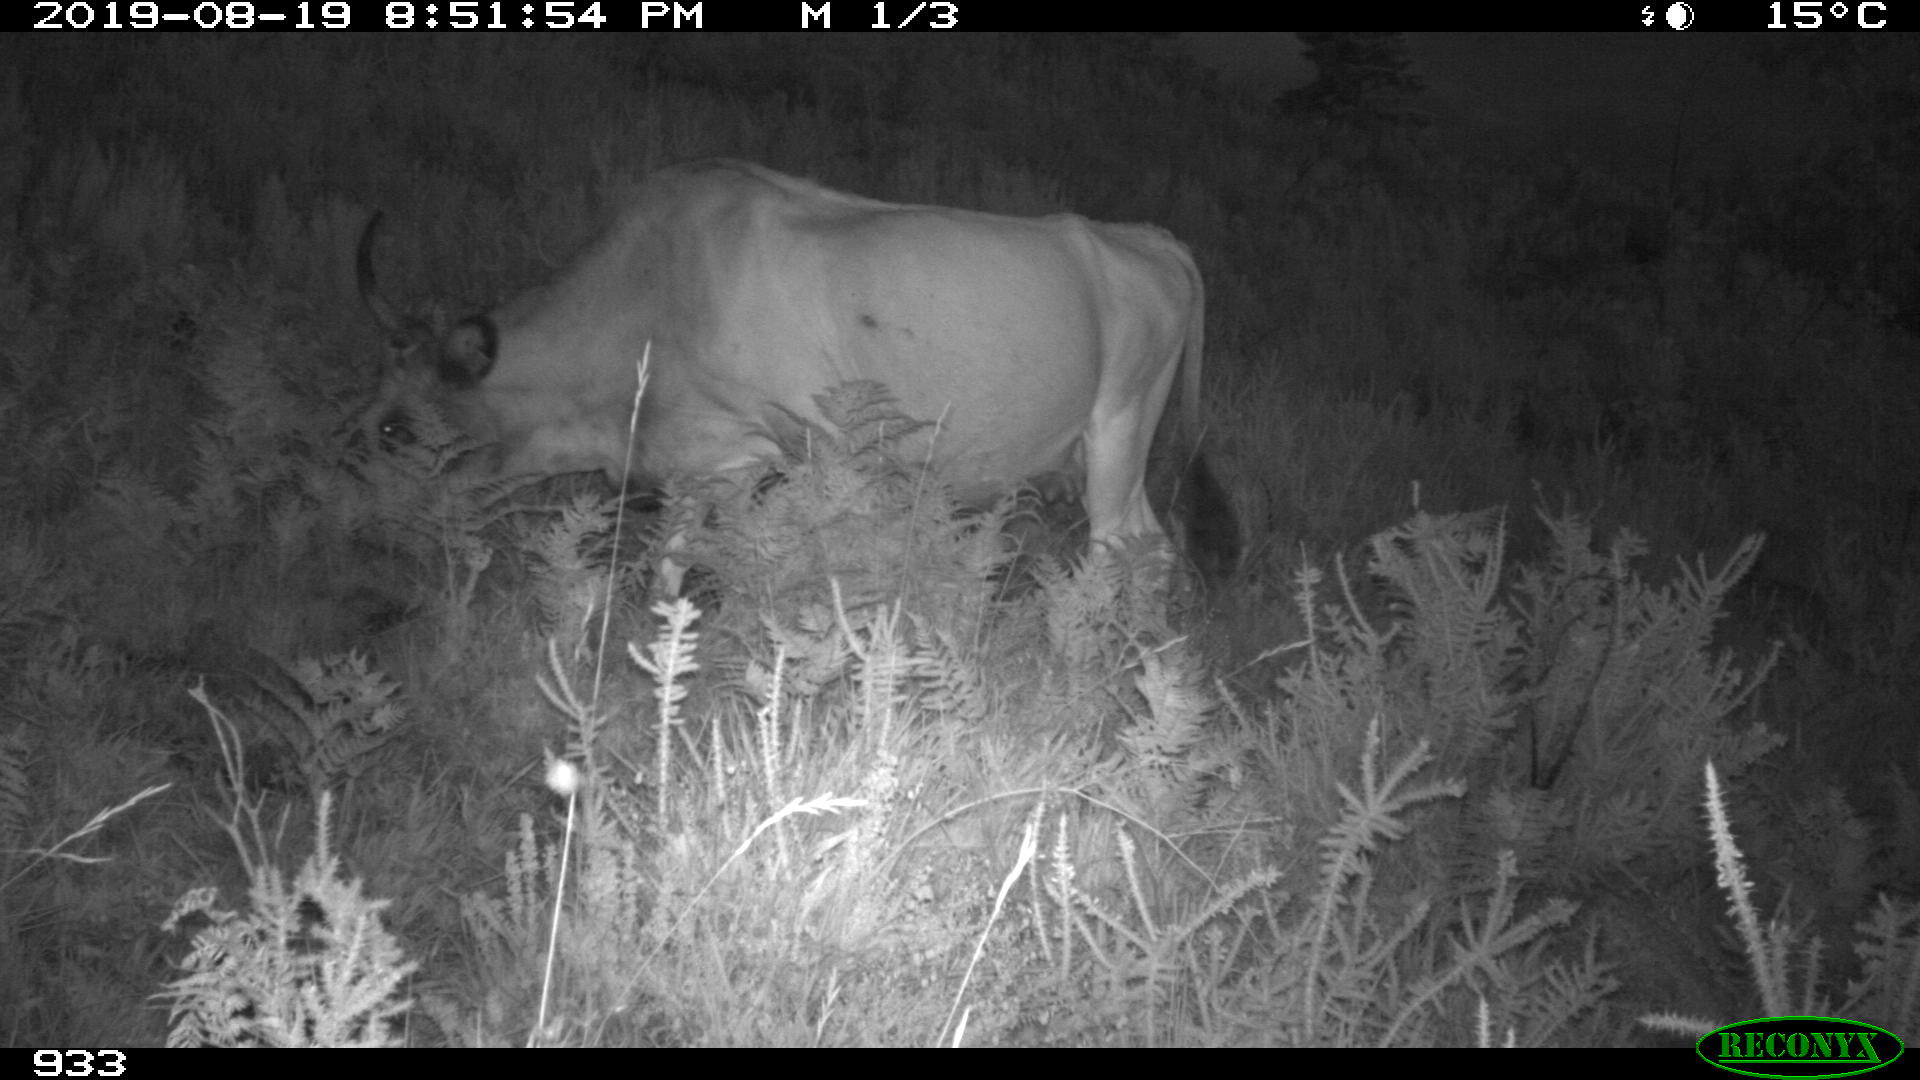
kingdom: Animalia
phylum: Chordata
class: Mammalia
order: Artiodactyla
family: Bovidae
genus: Bos
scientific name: Bos taurus
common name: Domesticated cattle
